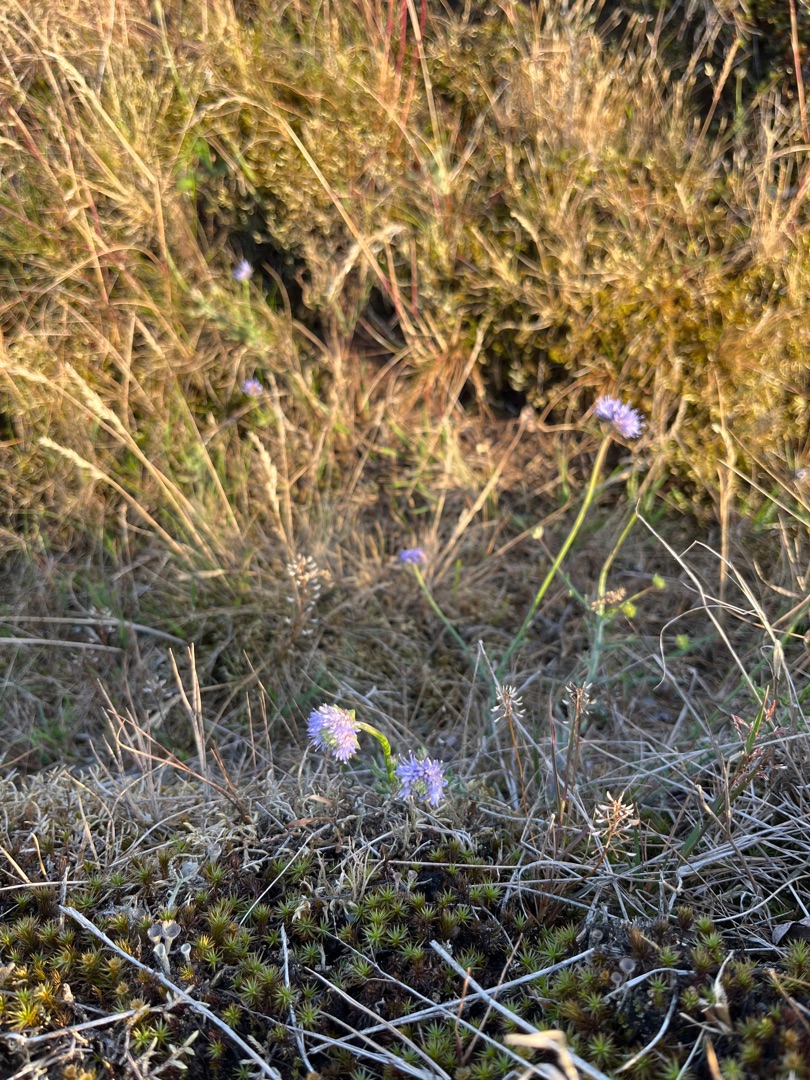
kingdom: Plantae
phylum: Tracheophyta
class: Magnoliopsida
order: Asterales
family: Campanulaceae
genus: Jasione
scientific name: Jasione montana
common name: Blåmunke
